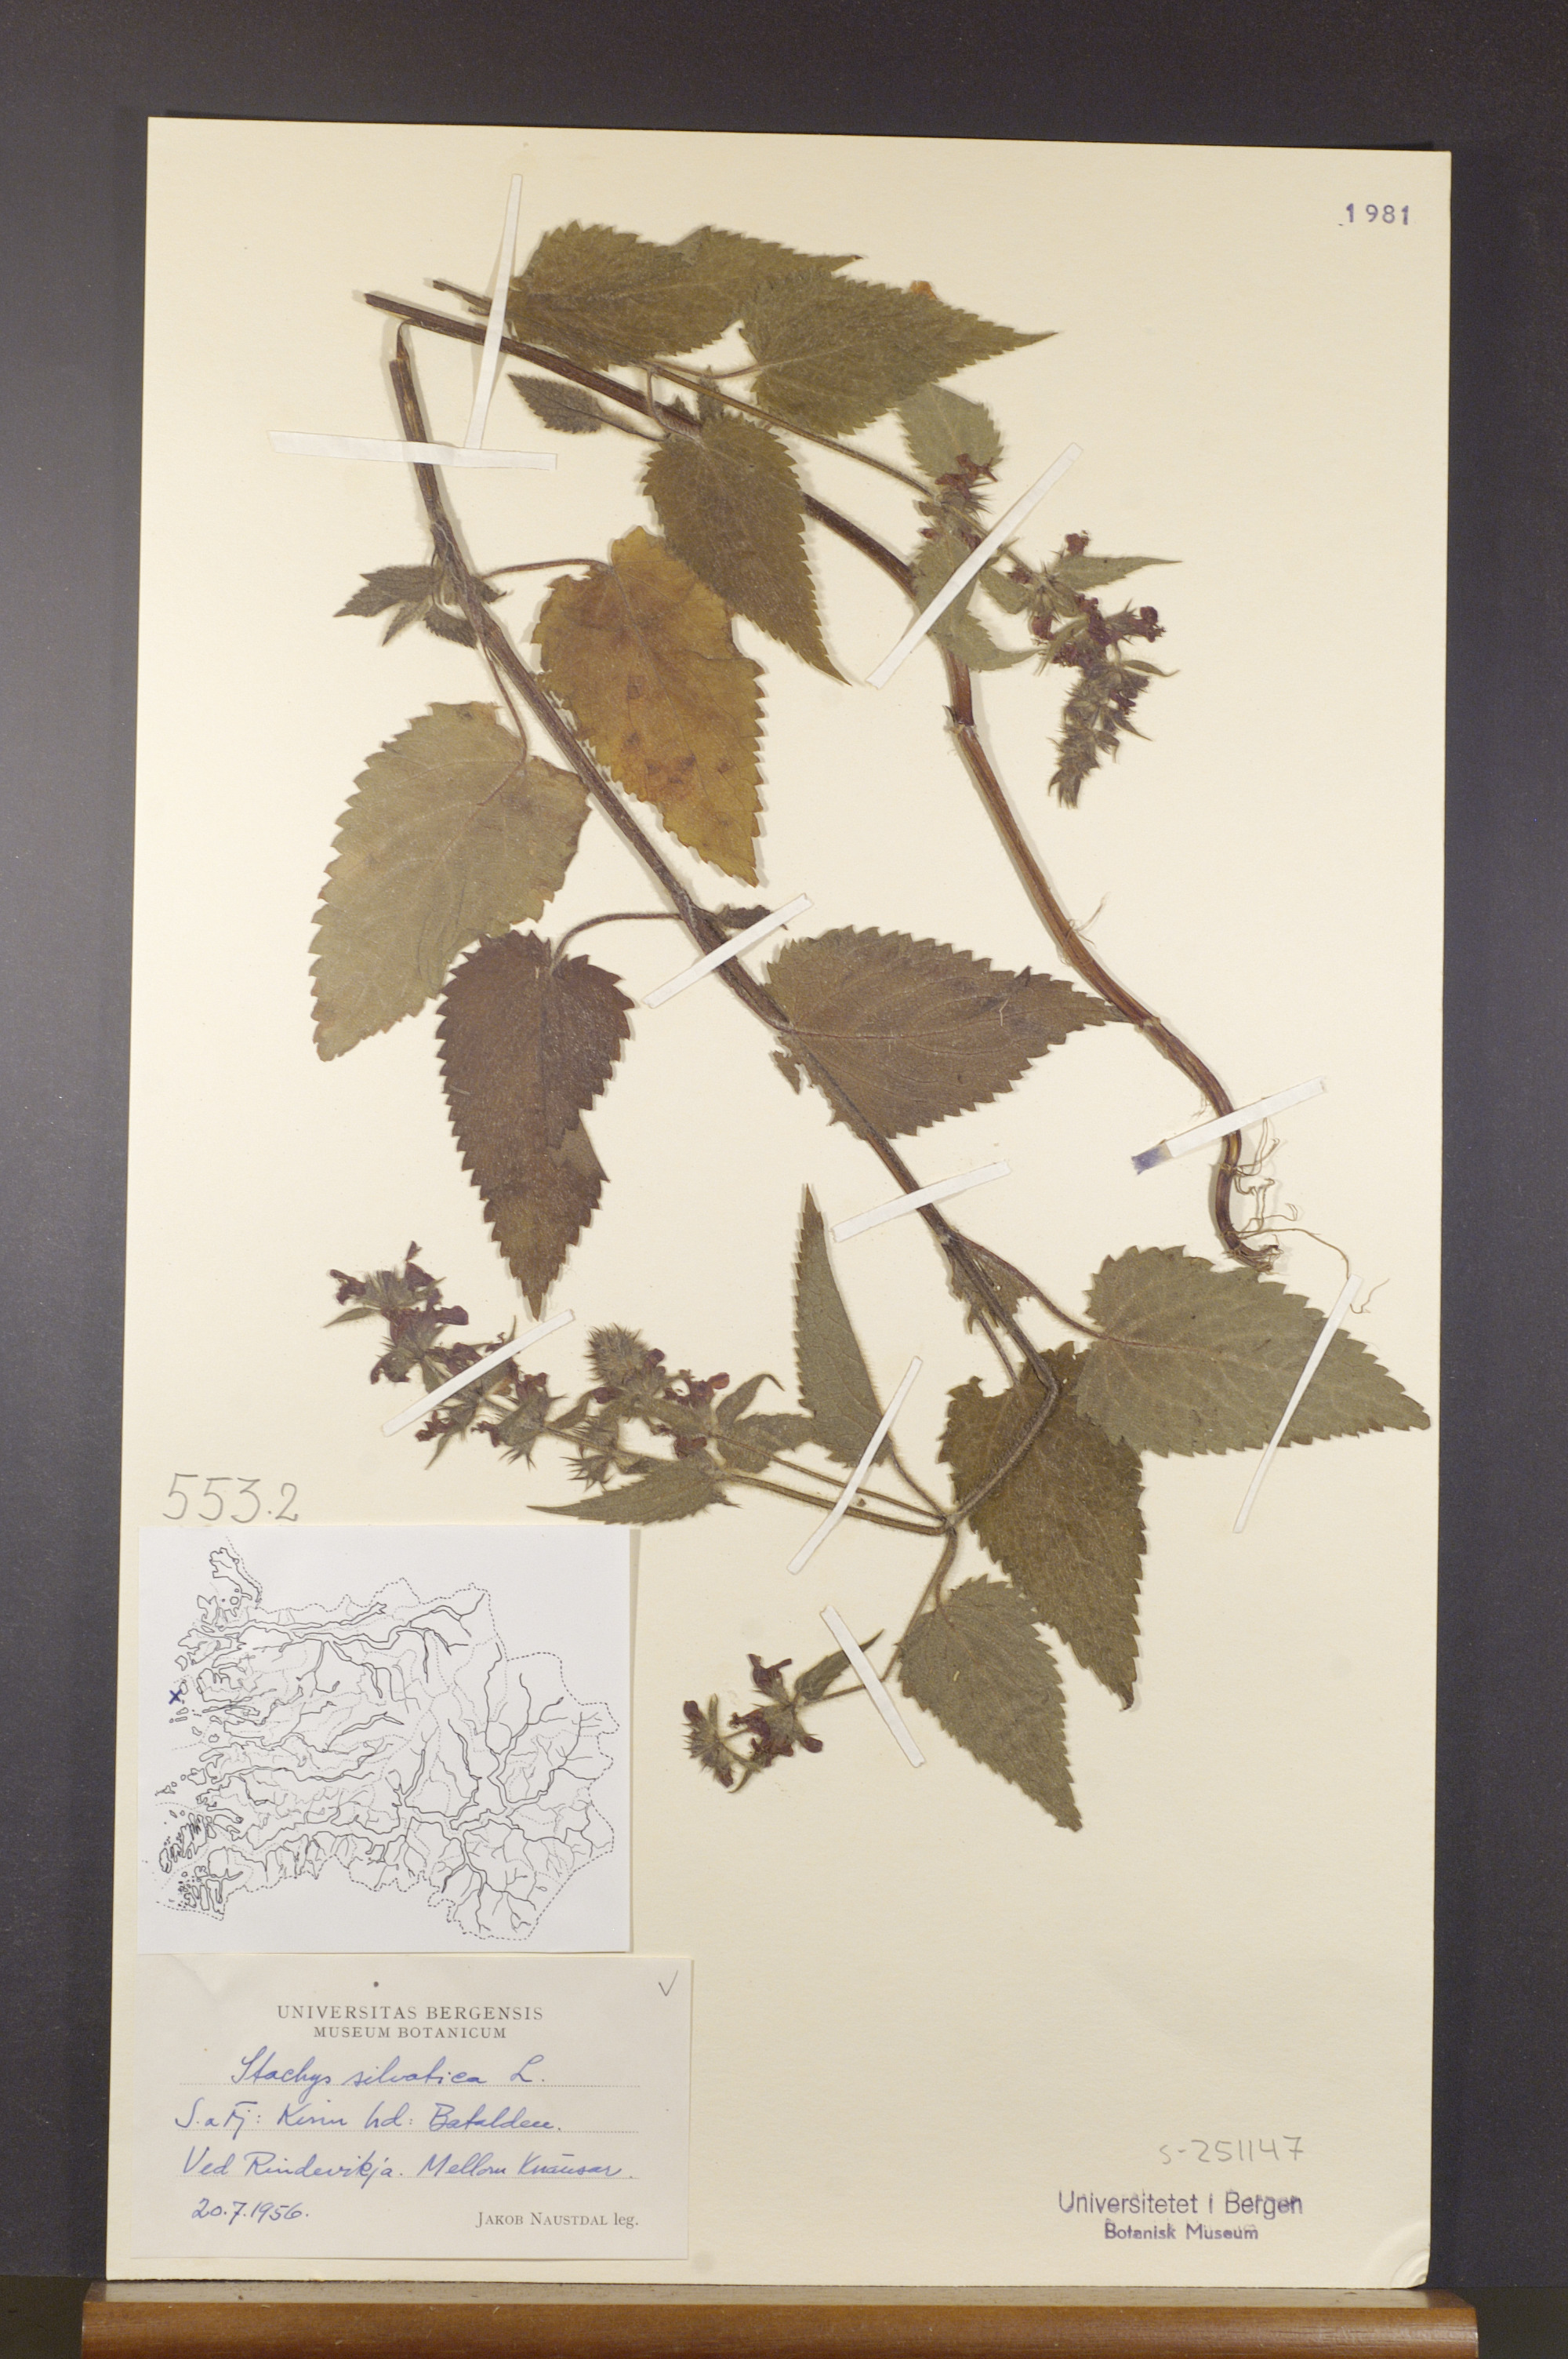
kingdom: Plantae
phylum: Tracheophyta
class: Magnoliopsida
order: Lamiales
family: Lamiaceae
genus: Stachys
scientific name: Stachys sylvatica
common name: Hedge woundwort
